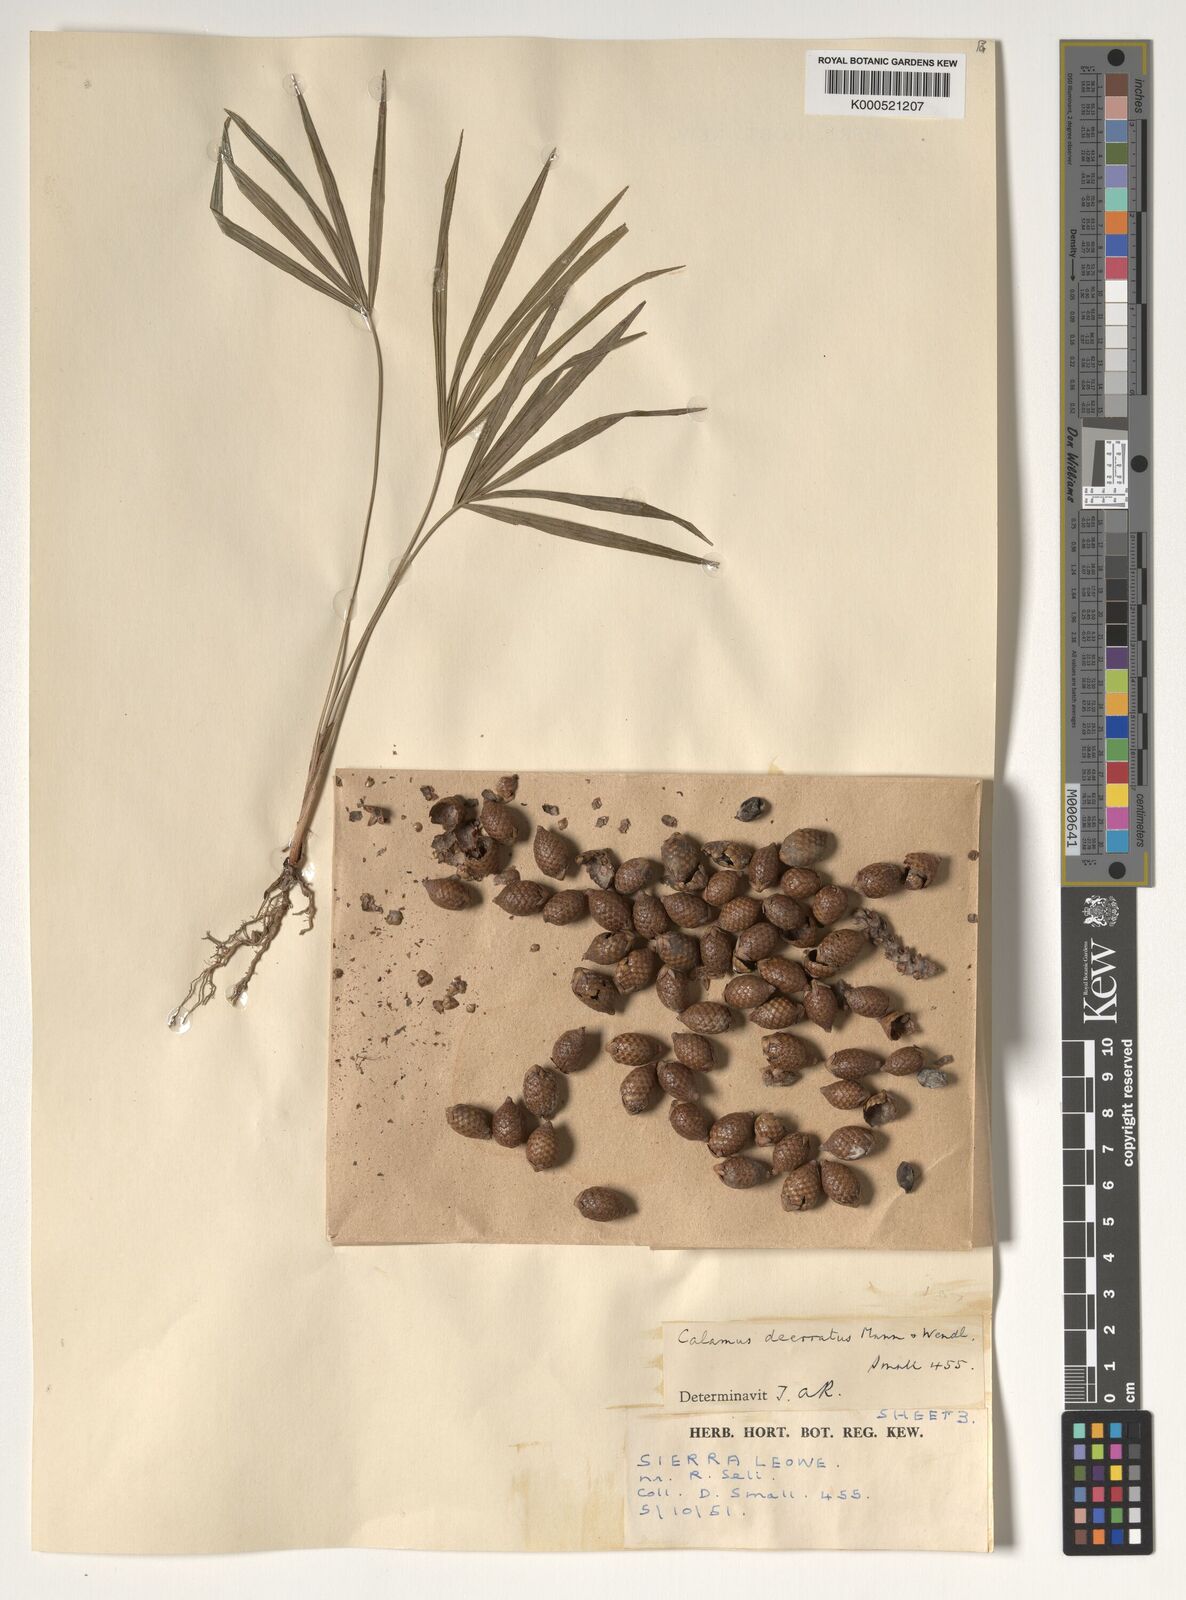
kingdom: Plantae
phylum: Tracheophyta
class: Liliopsida
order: Arecales
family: Arecaceae
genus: Calamus
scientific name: Calamus deerratus
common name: Rattan
